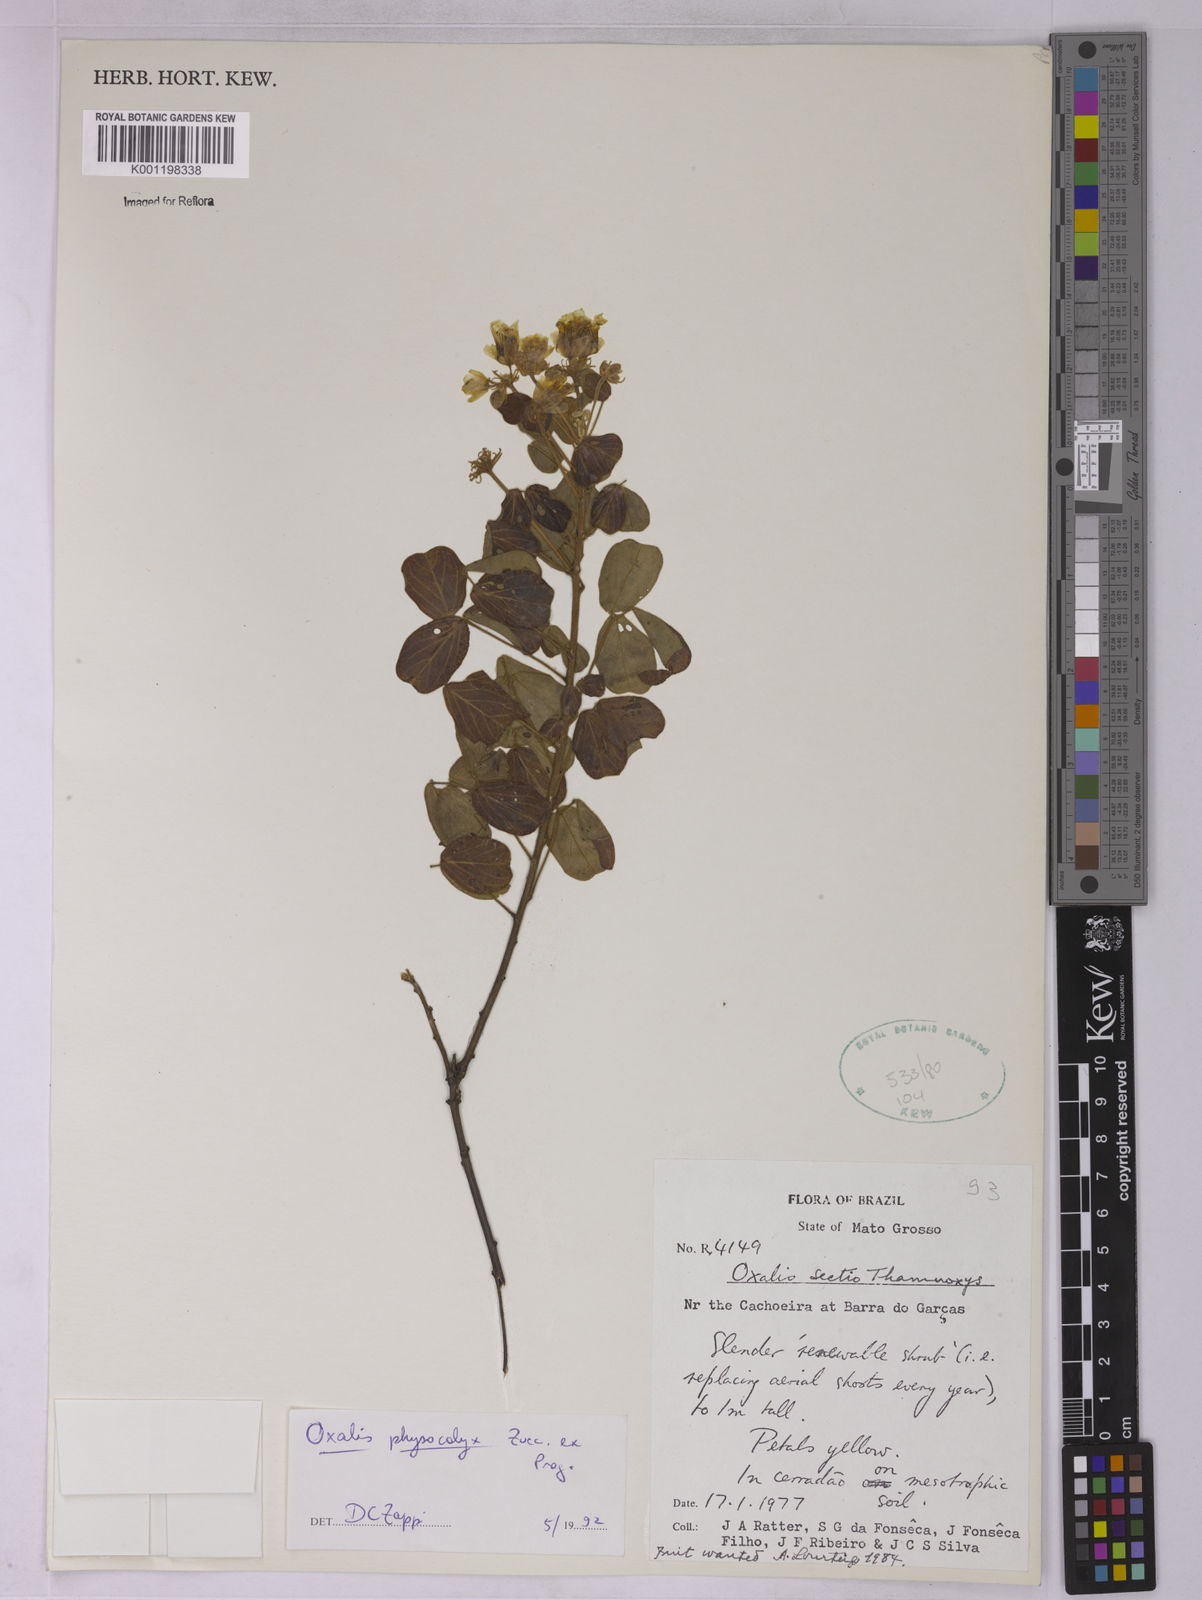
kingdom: Plantae
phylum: Tracheophyta
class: Magnoliopsida
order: Oxalidales
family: Oxalidaceae
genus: Oxalis
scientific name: Oxalis physocalyx
